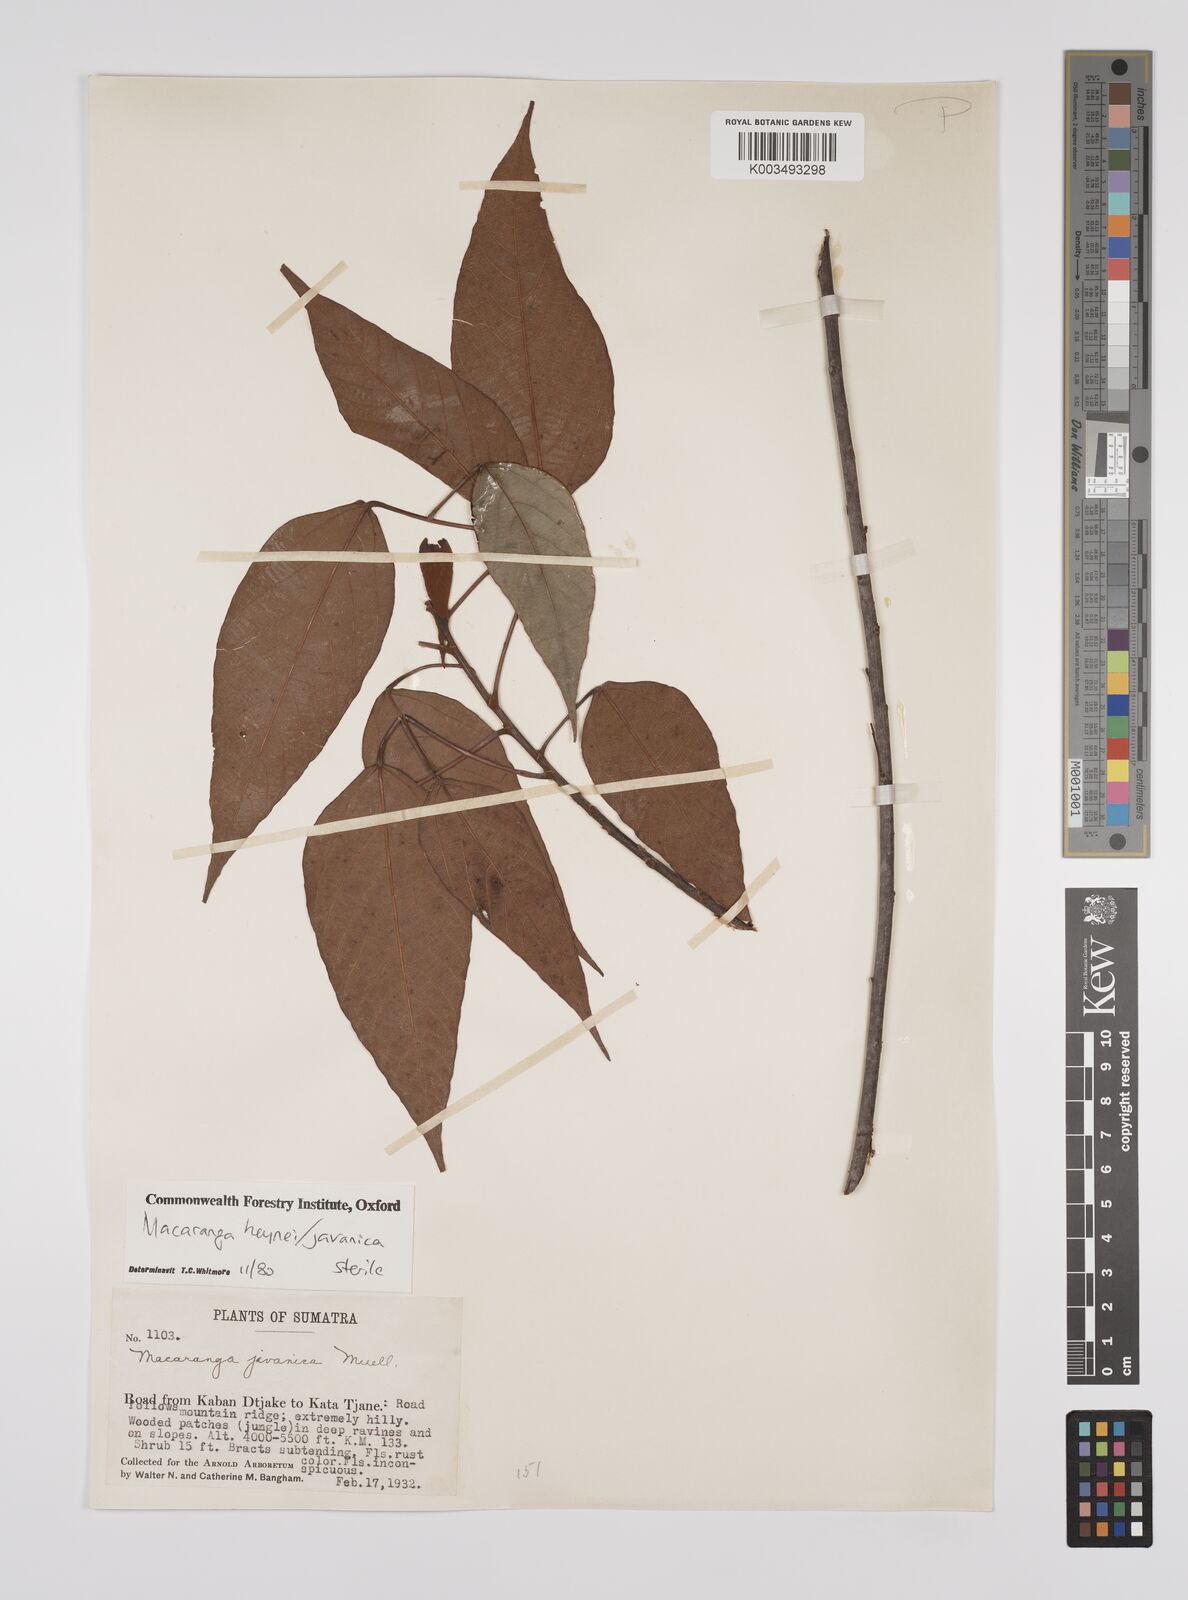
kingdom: Plantae
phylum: Tracheophyta
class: Magnoliopsida
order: Malpighiales
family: Euphorbiaceae
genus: Macaranga
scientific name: Macaranga heynei
